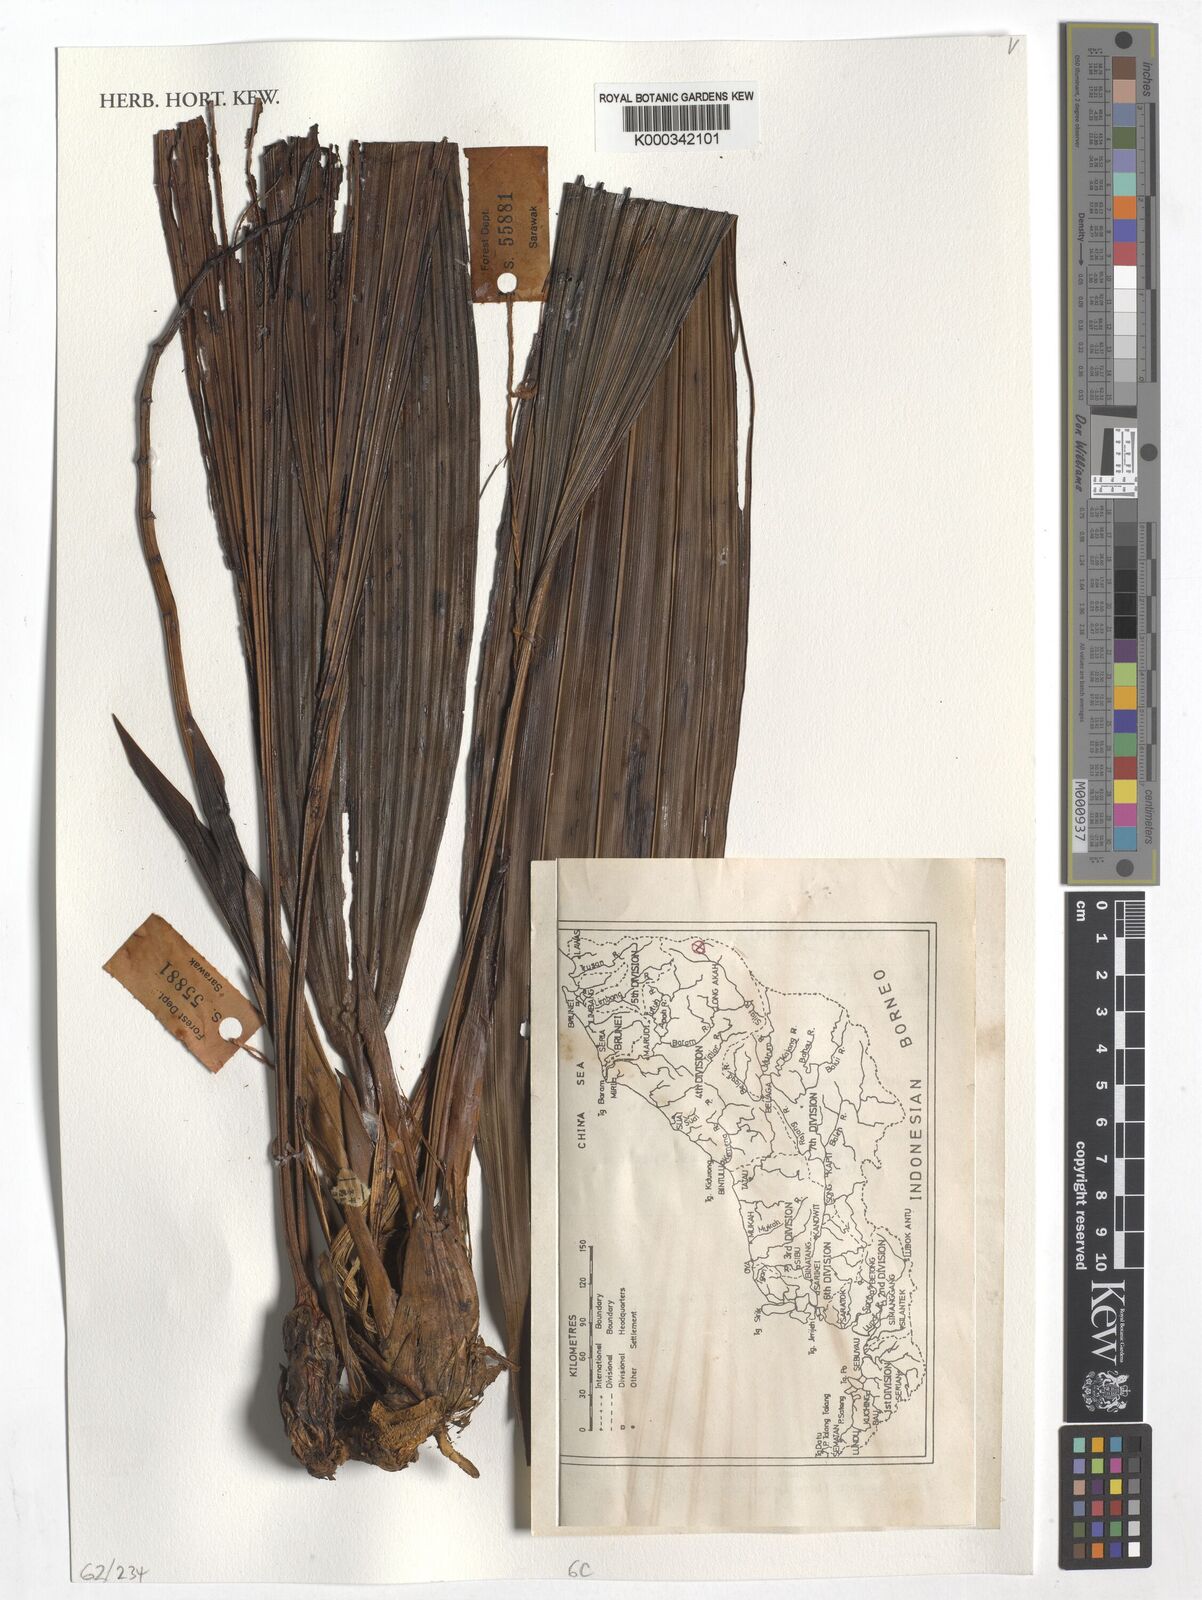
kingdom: Plantae
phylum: Tracheophyta
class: Liliopsida
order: Asparagales
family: Orchidaceae
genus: Coelogyne
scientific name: Coelogyne
